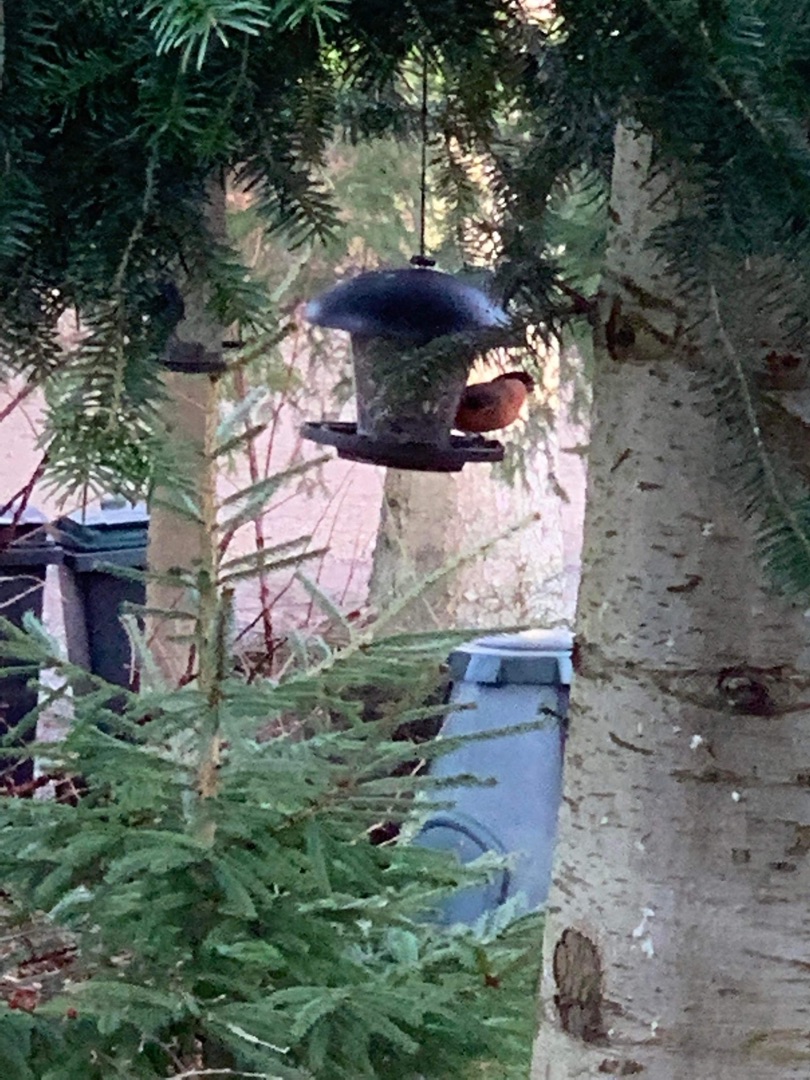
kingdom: Animalia
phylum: Chordata
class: Aves
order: Passeriformes
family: Fringillidae
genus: Pyrrhula
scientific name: Pyrrhula pyrrhula
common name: Dompap
